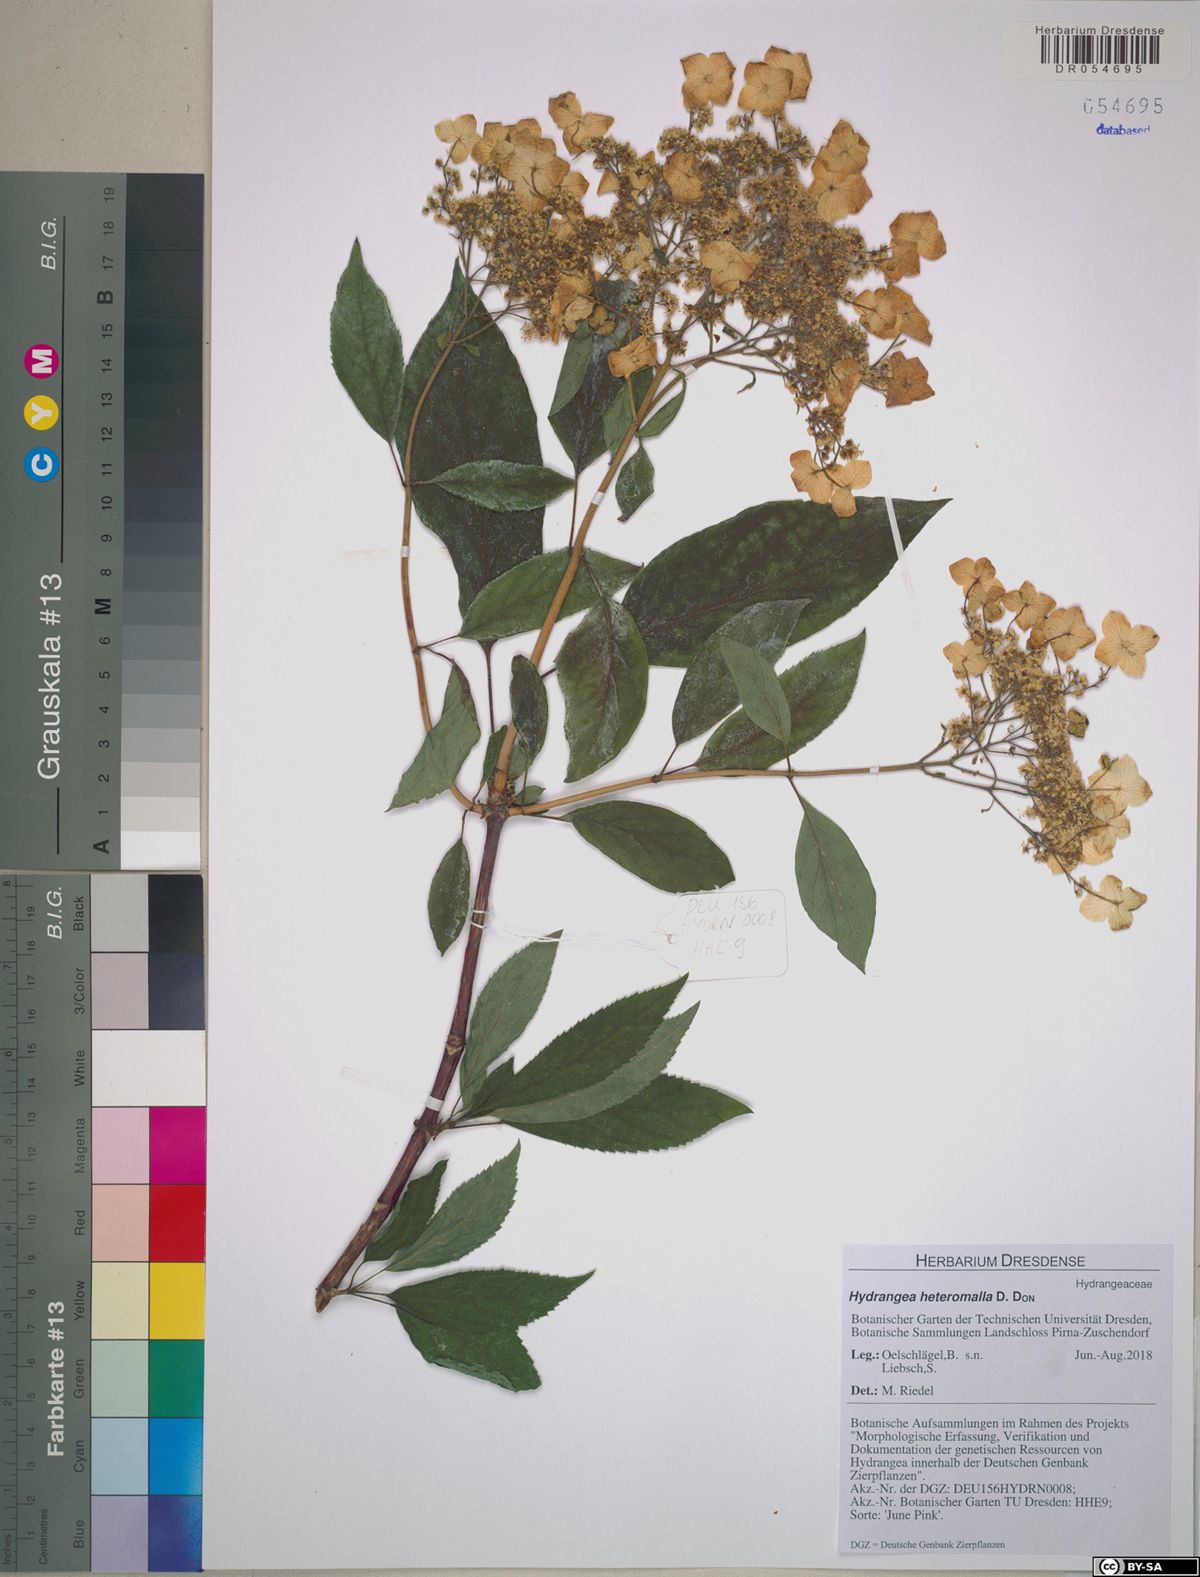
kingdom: Plantae
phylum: Tracheophyta
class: Magnoliopsida
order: Cornales
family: Hydrangeaceae
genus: Hydrangea
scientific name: Hydrangea heteromalla
